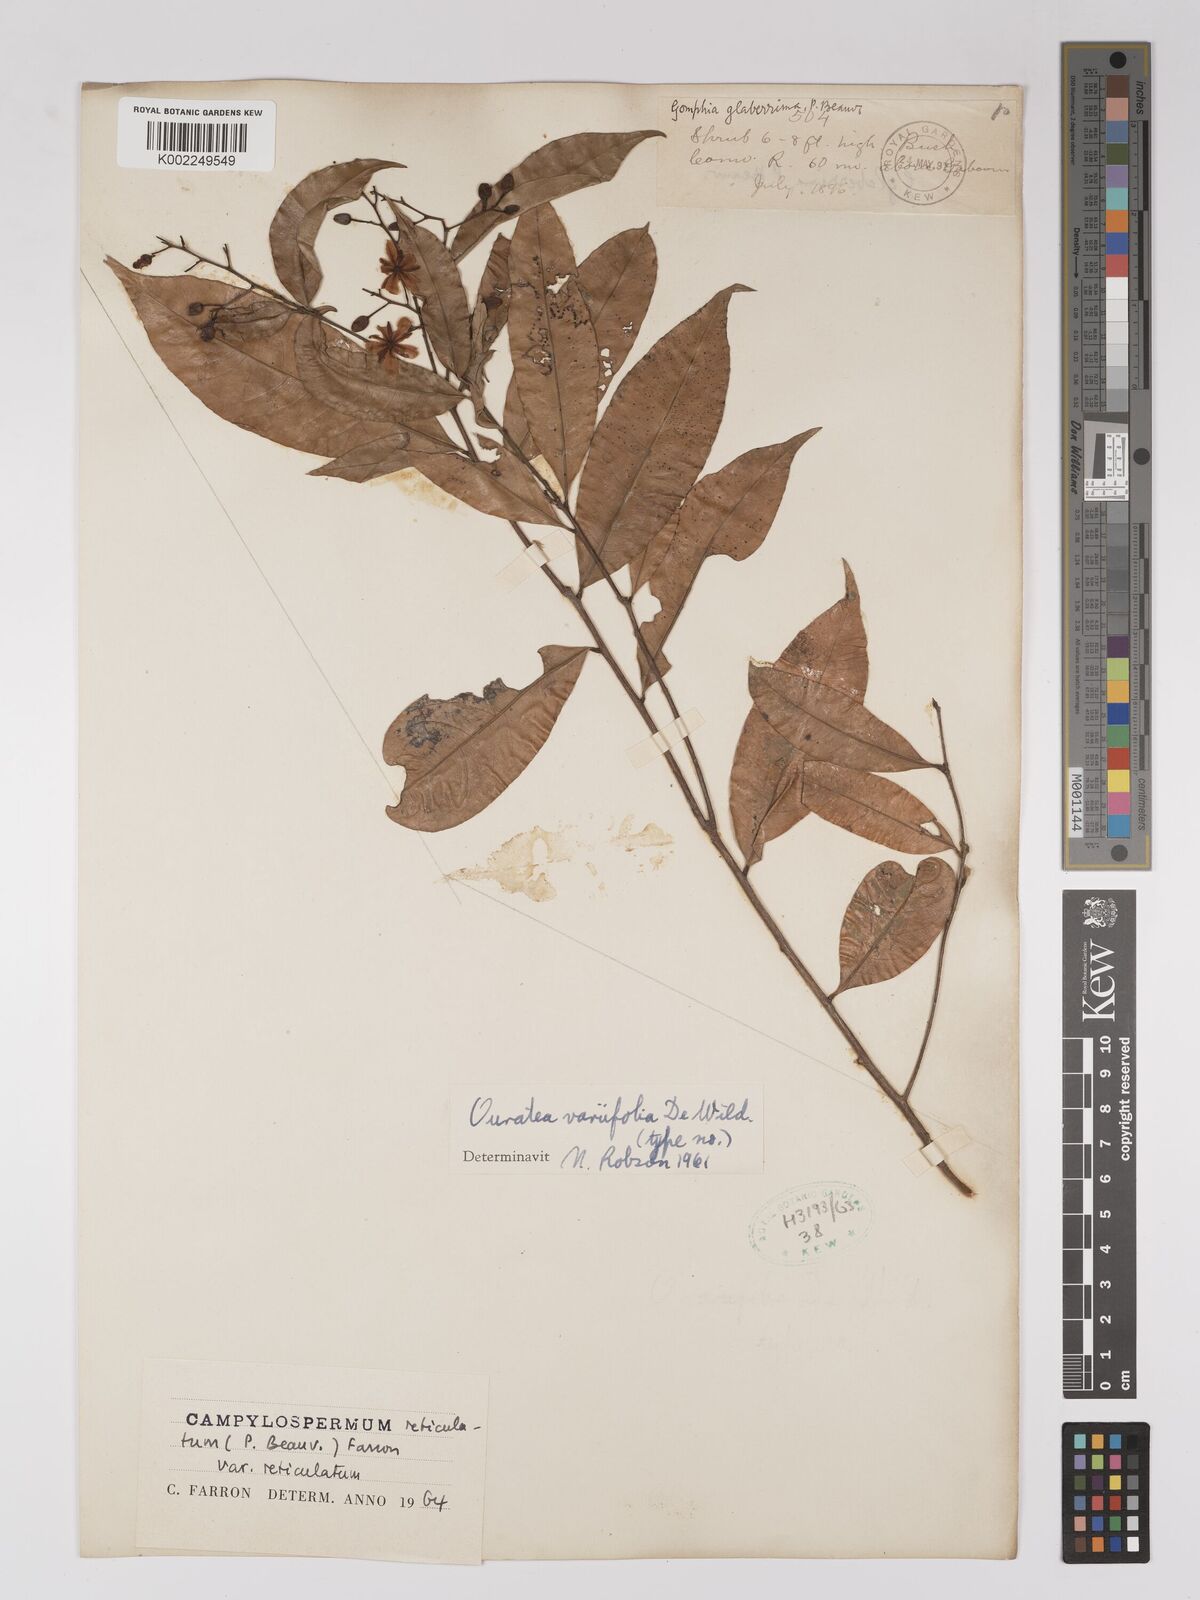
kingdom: Plantae
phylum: Tracheophyta
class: Magnoliopsida
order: Malpighiales
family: Ochnaceae
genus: Campylospermum
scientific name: Campylospermum reticulatum
